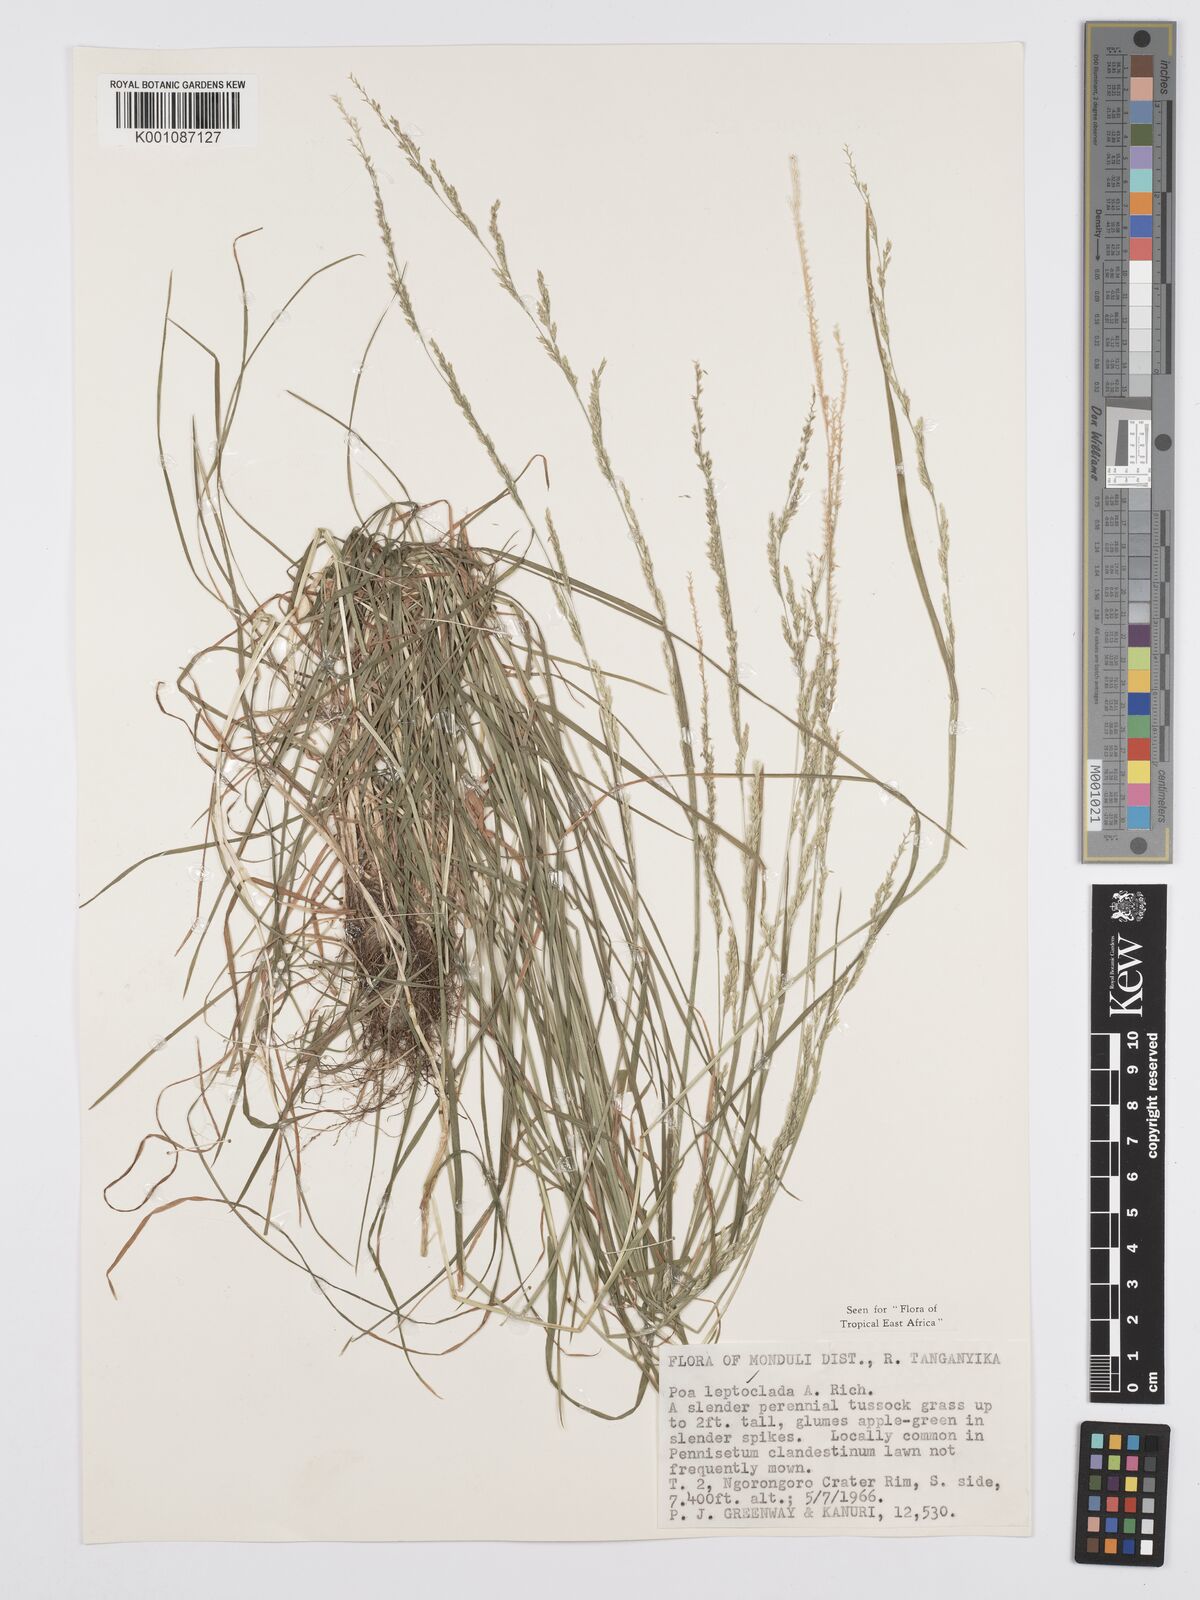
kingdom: Plantae
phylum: Tracheophyta
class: Liliopsida
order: Poales
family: Poaceae
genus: Poa
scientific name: Poa leptoclada
